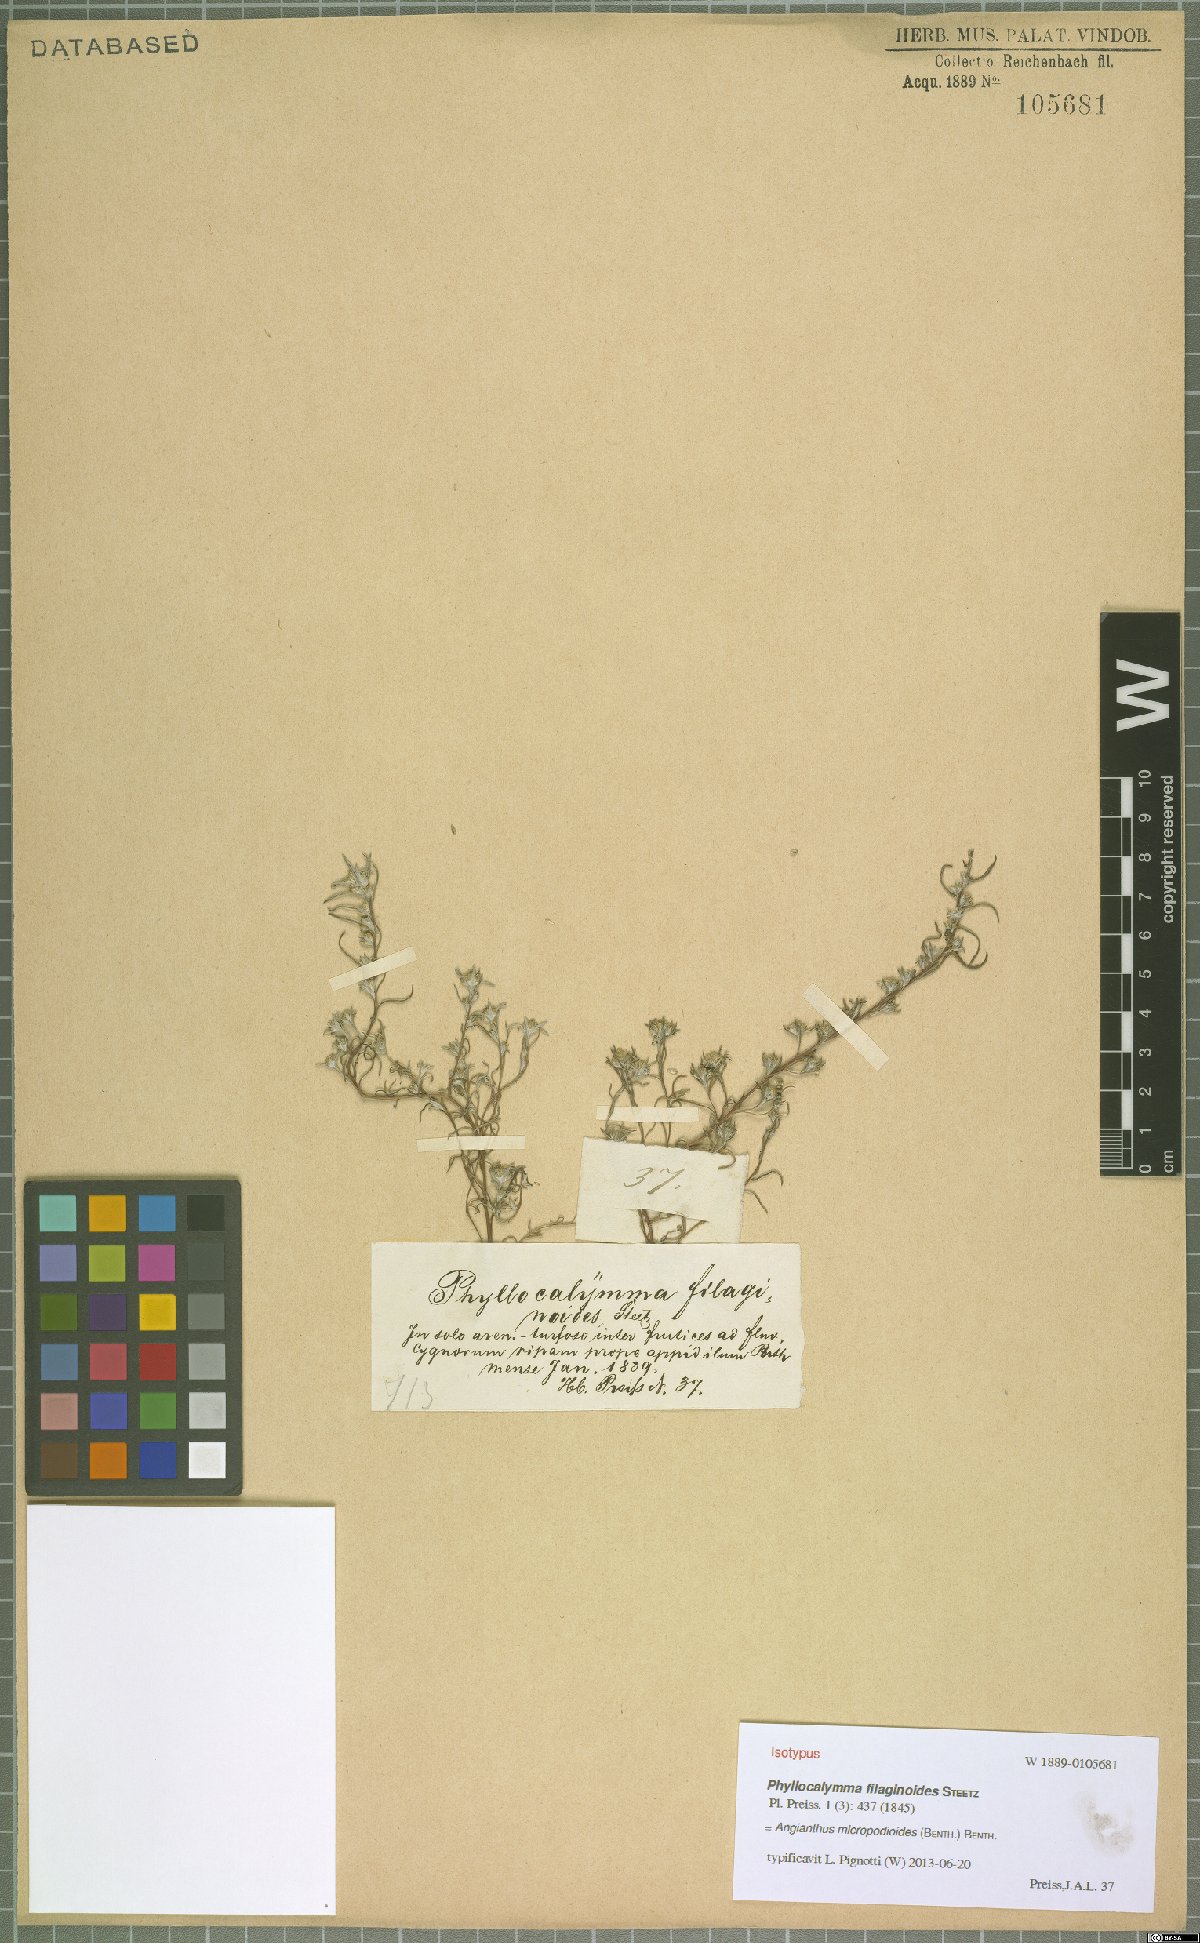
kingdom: Plantae
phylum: Tracheophyta
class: Magnoliopsida
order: Asterales
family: Asteraceae
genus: Angianthus
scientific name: Angianthus micropodioides
